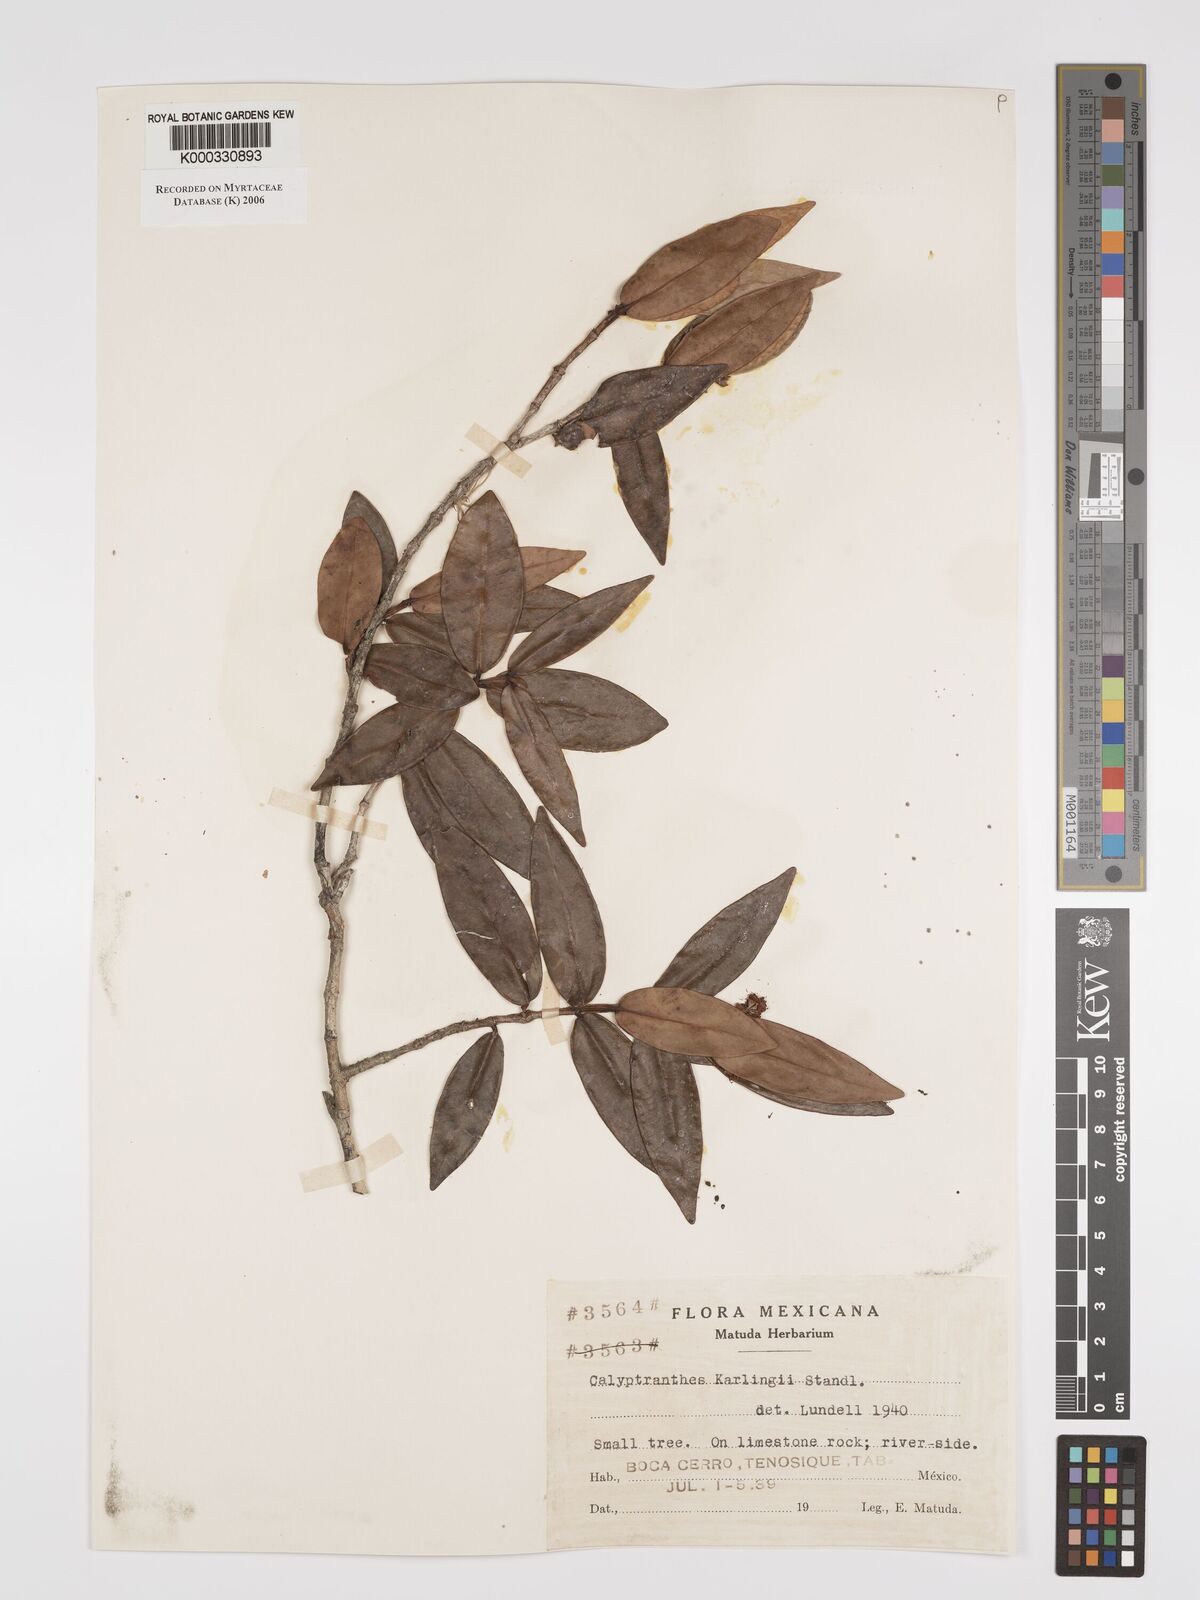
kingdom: Plantae
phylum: Tracheophyta
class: Magnoliopsida
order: Myrtales
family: Myrtaceae
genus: Myrcia
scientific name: Myrcia karlingii
